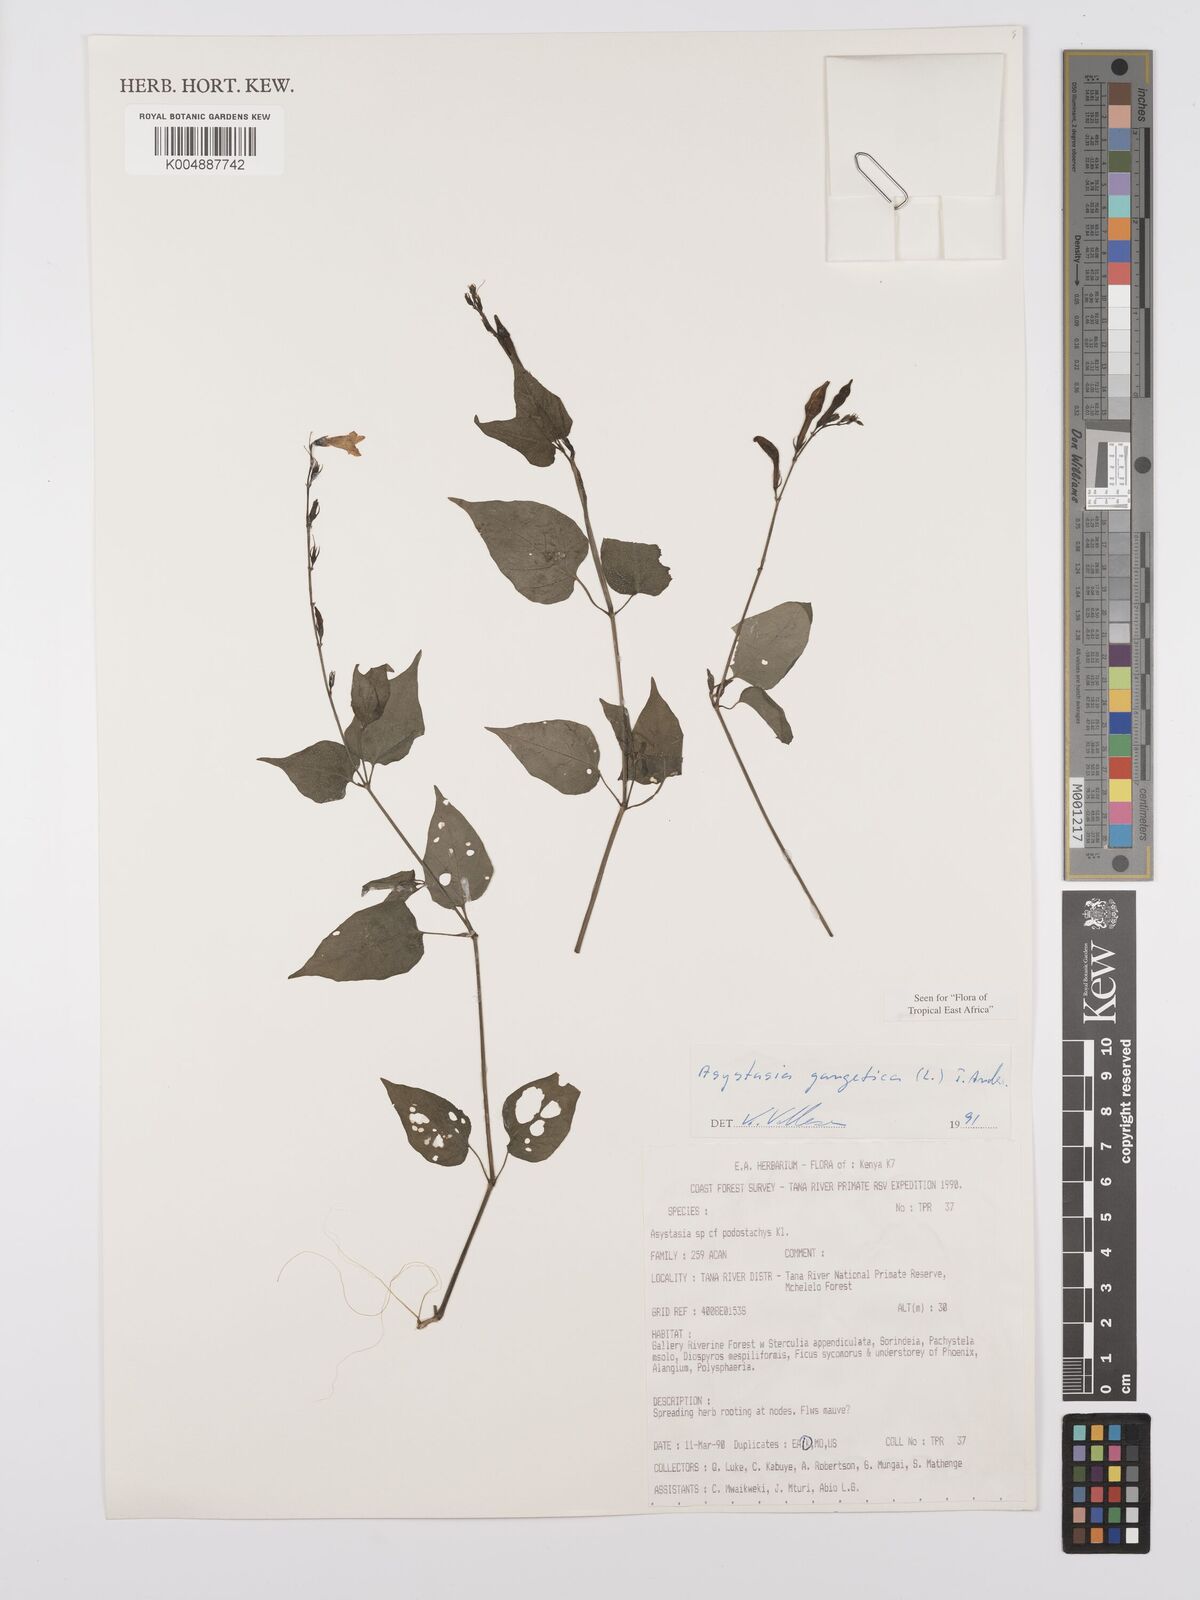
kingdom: Plantae
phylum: Tracheophyta
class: Magnoliopsida
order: Lamiales
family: Acanthaceae
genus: Asystasia
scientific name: Asystasia gangetica
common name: Chinese violet
